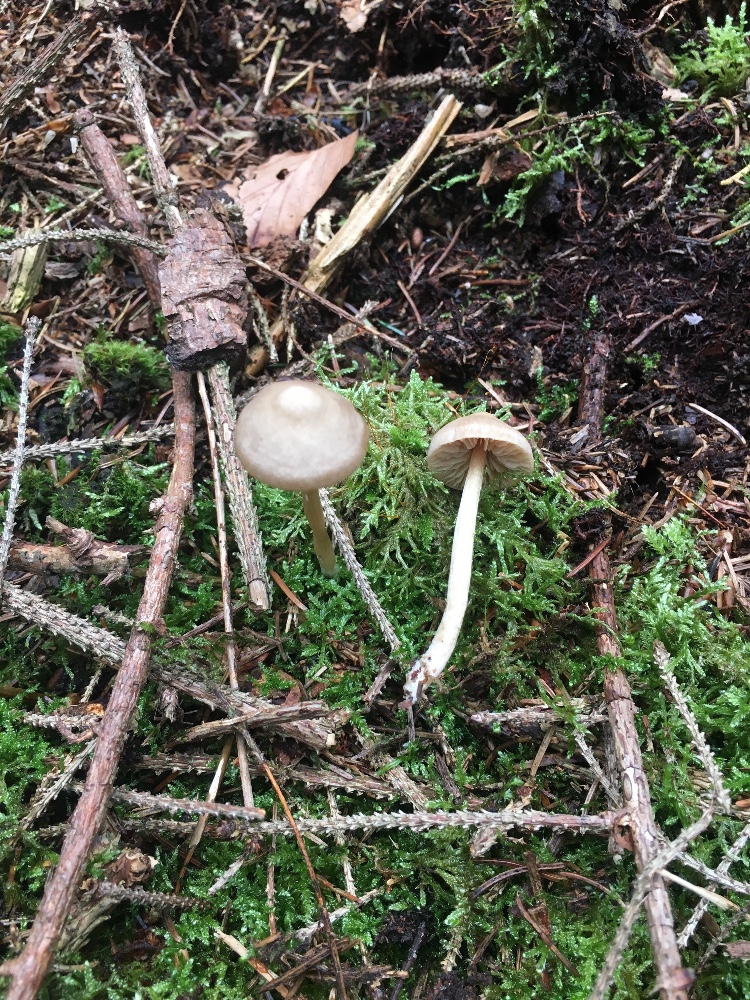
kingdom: Fungi
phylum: Basidiomycota
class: Agaricomycetes
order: Agaricales
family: Entolomataceae
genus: Entoloma
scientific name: Entoloma
